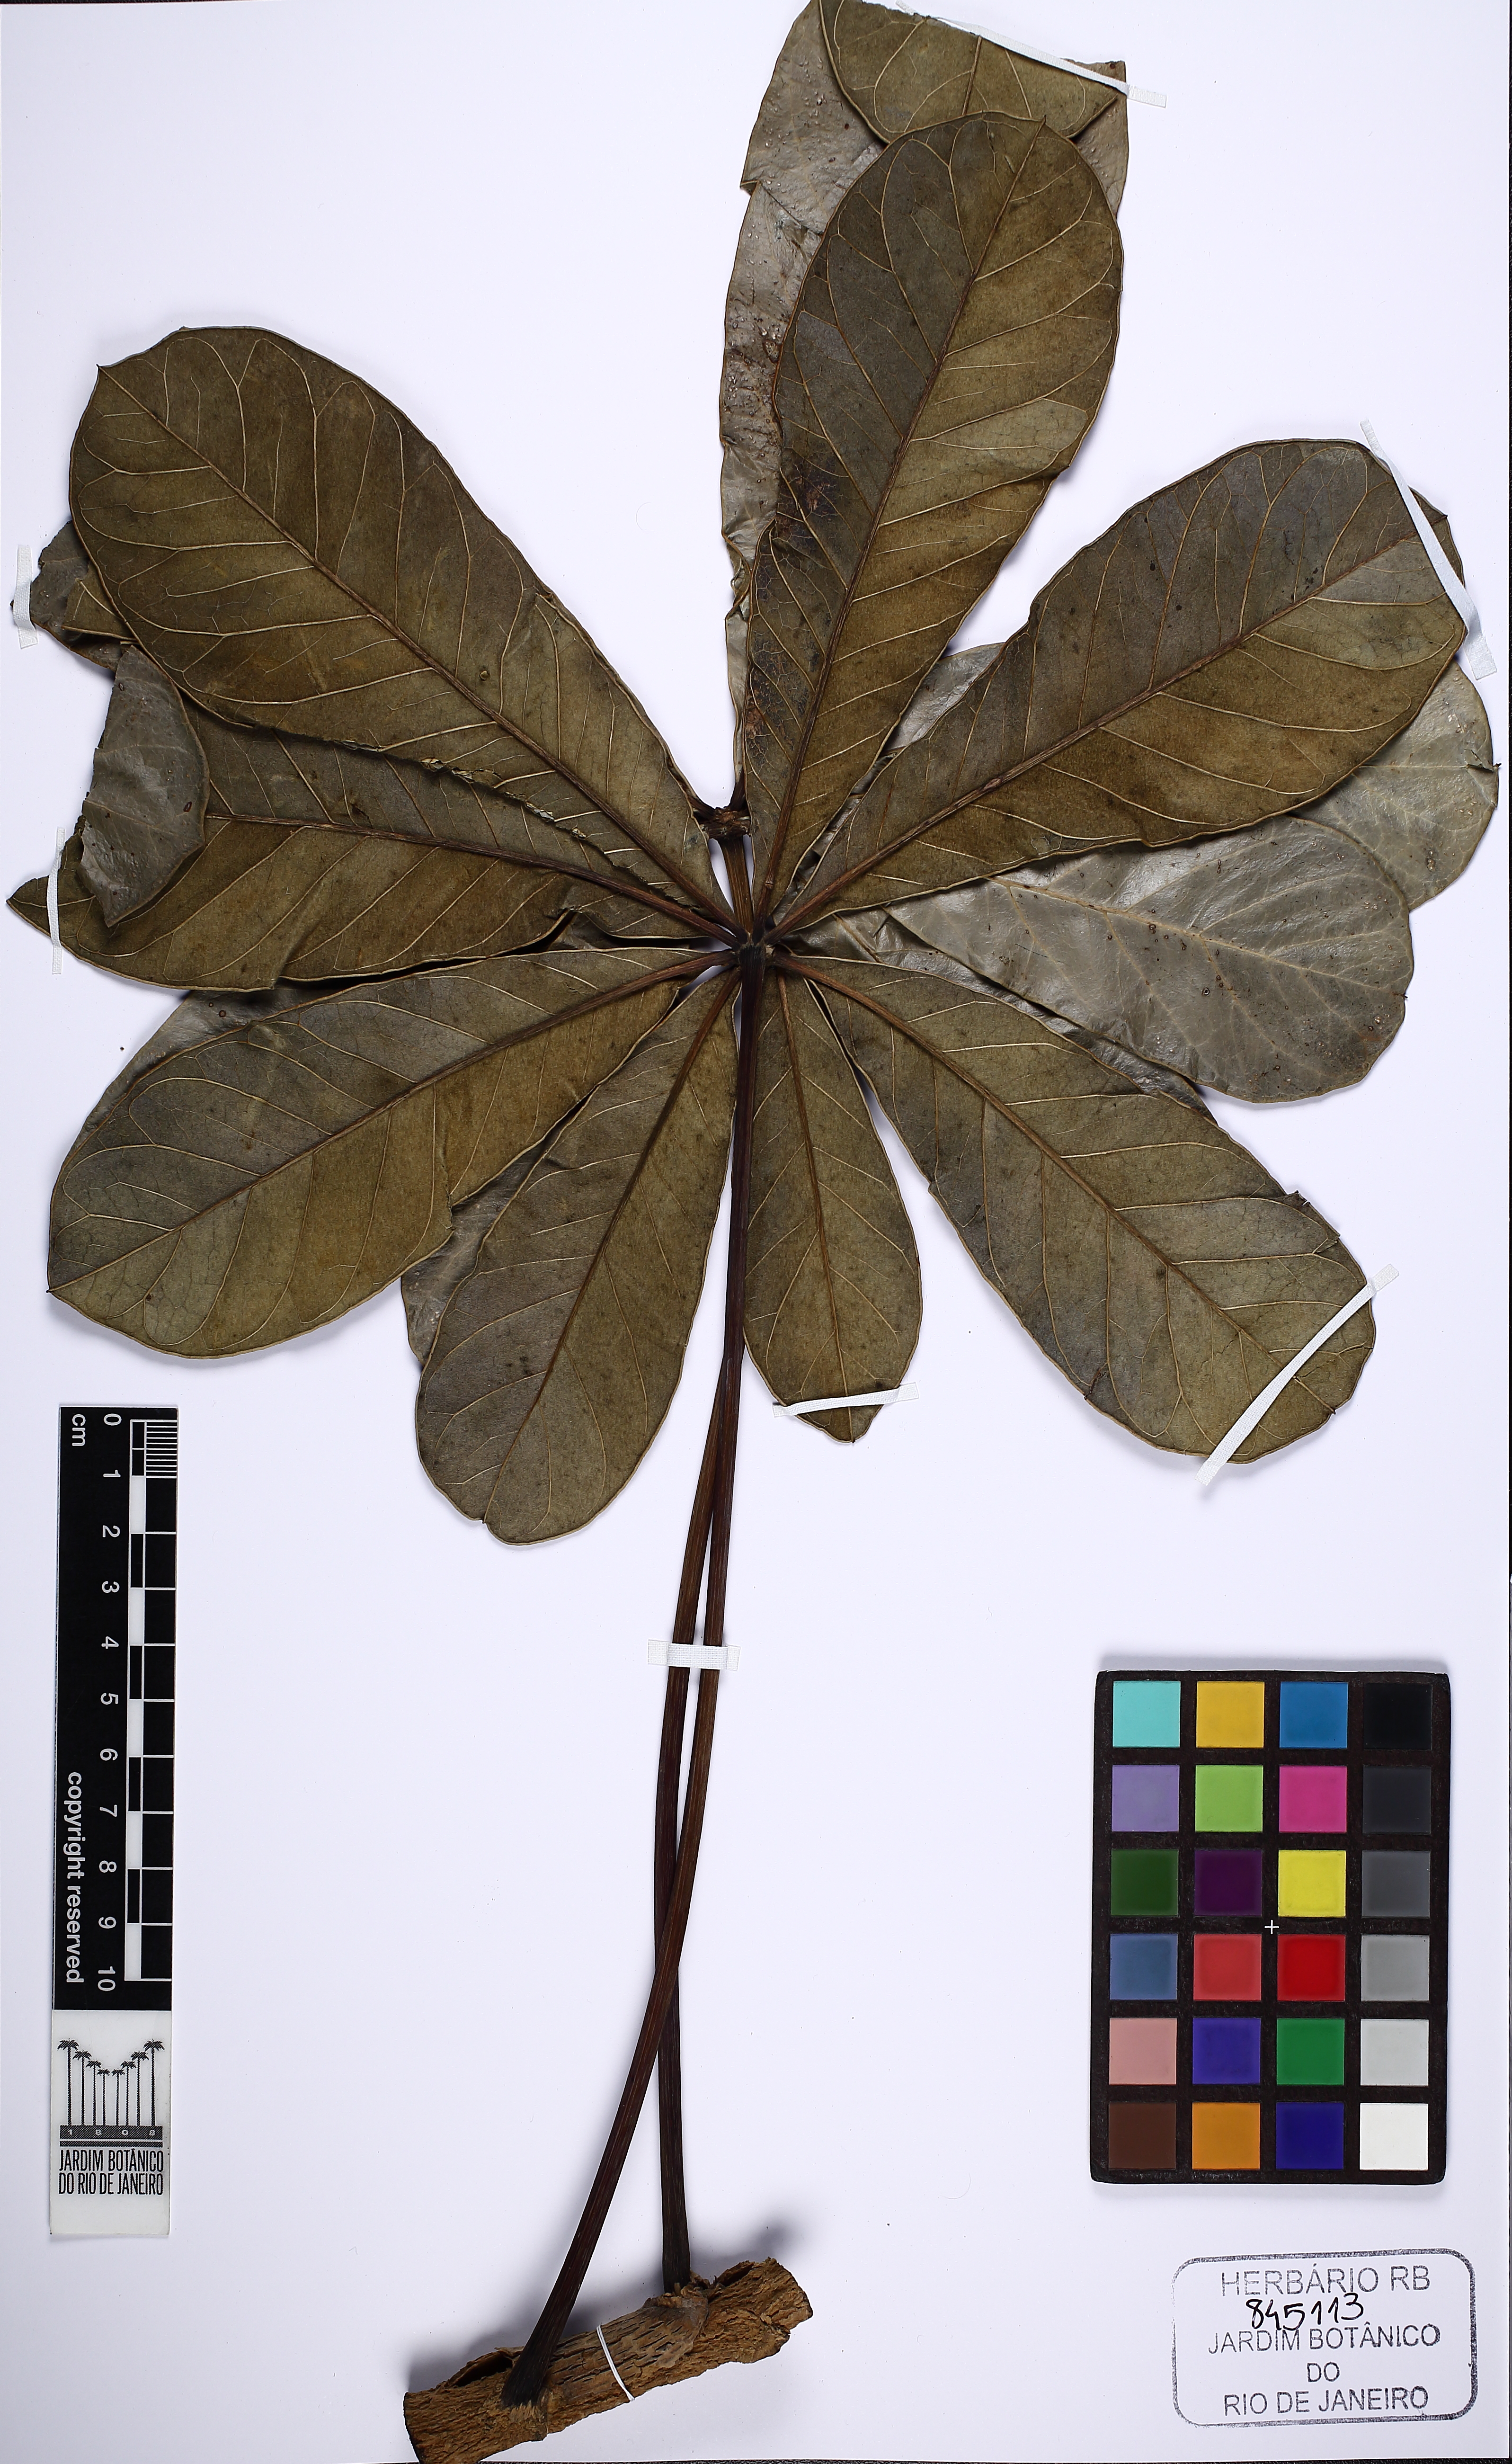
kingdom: Plantae
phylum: Tracheophyta
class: Magnoliopsida
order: Apiales
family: Araliaceae
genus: Didymopanax
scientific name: Didymopanax macrocarpus
